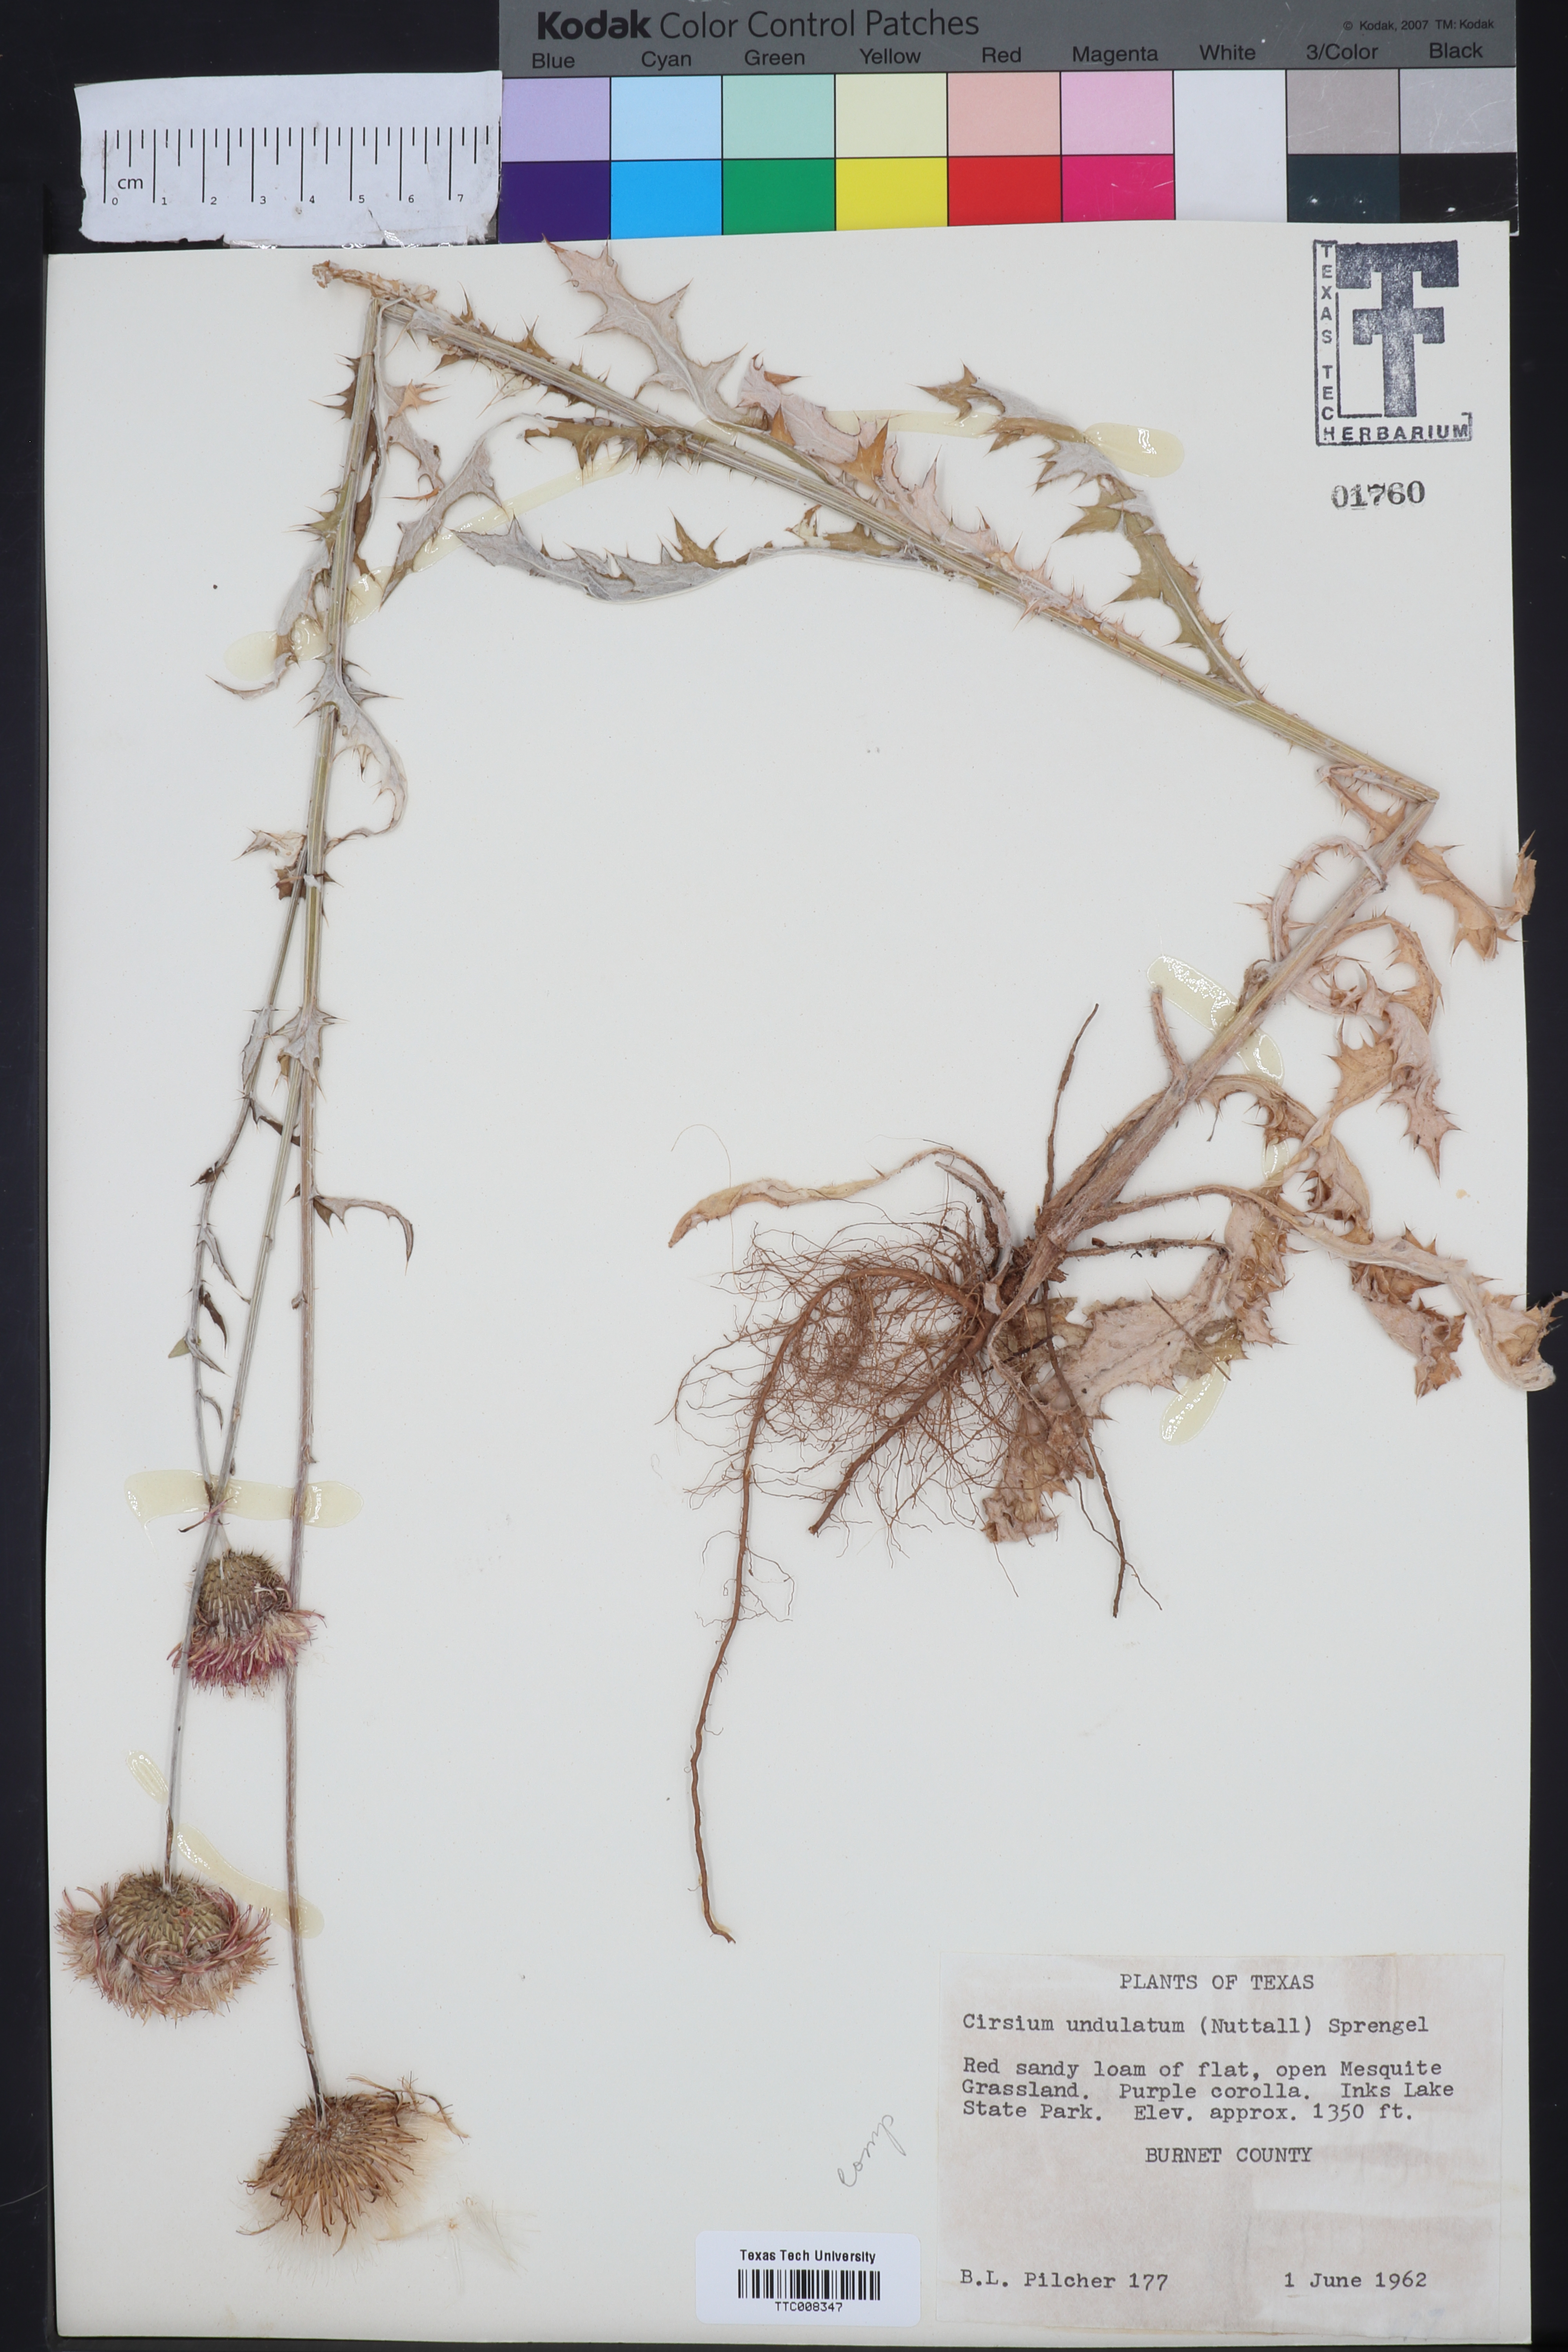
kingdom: Plantae
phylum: Tracheophyta
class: Magnoliopsida
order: Asterales
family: Asteraceae
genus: Cirsium
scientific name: Cirsium undulatum
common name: Pasture thistle
